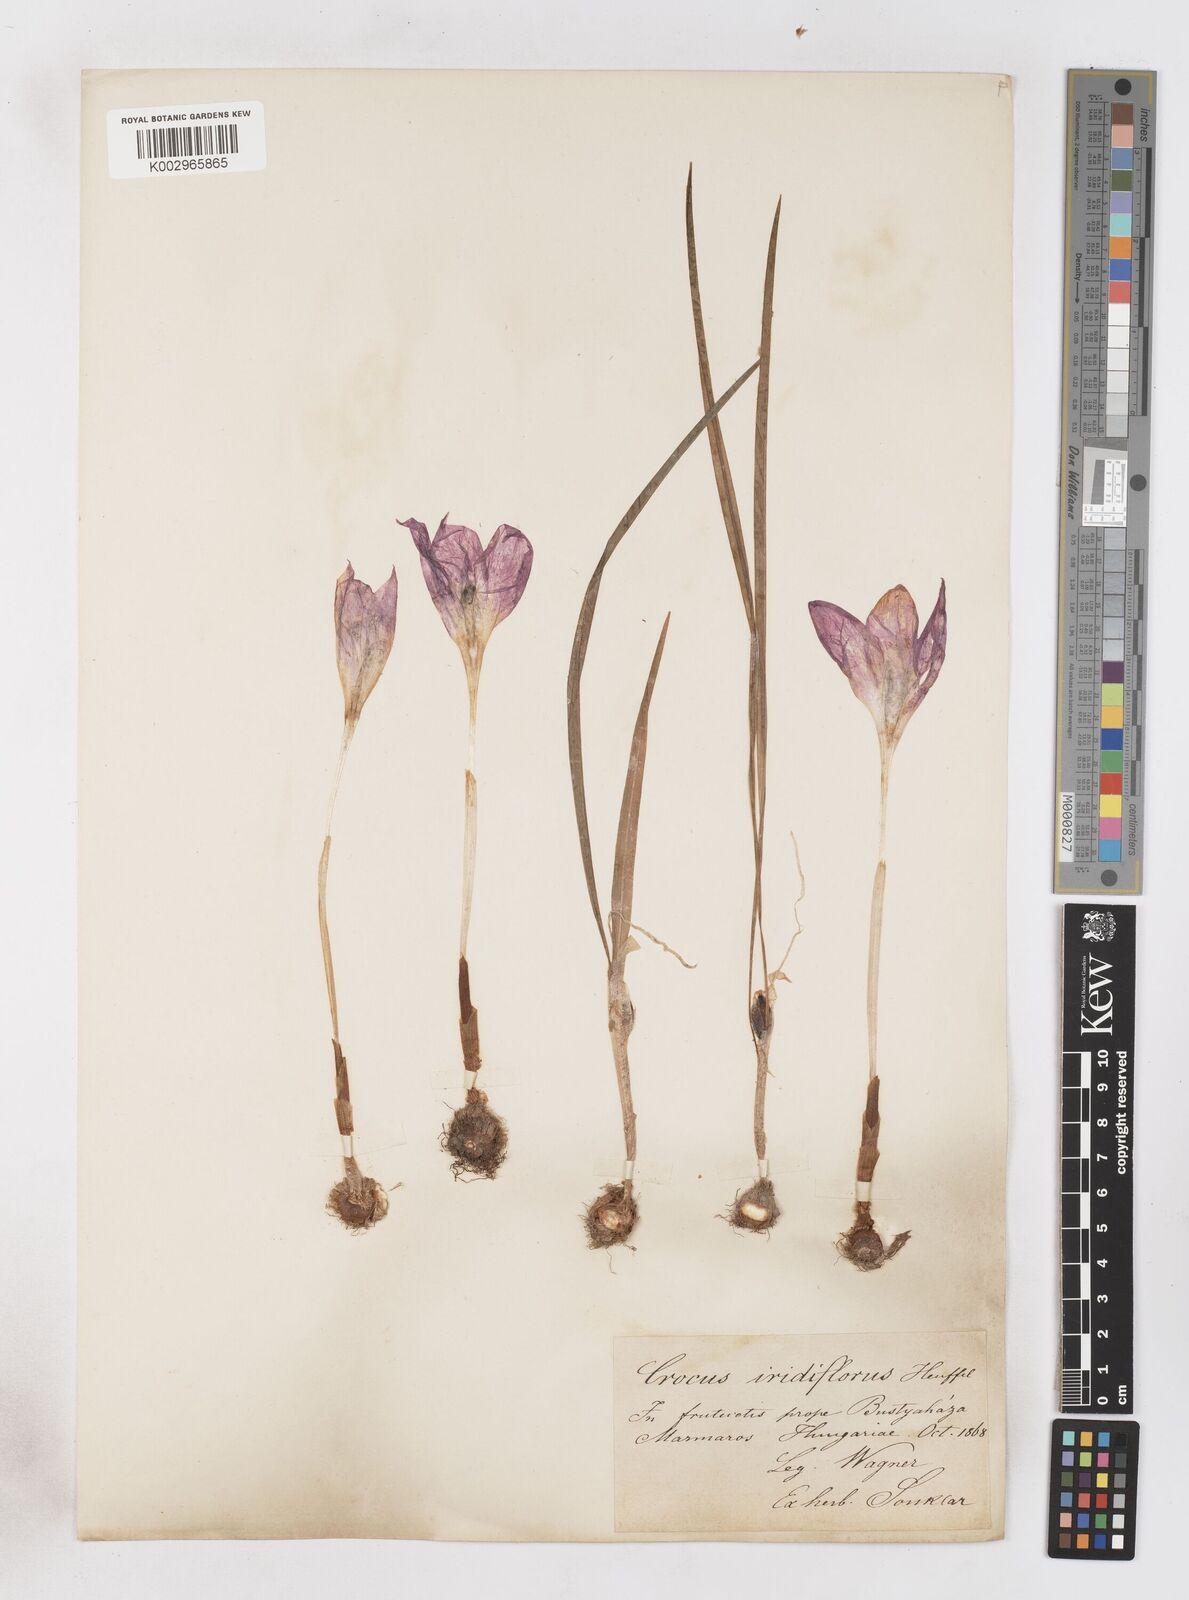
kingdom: Plantae
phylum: Tracheophyta
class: Liliopsida
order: Asparagales
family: Iridaceae
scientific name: Iridaceae
